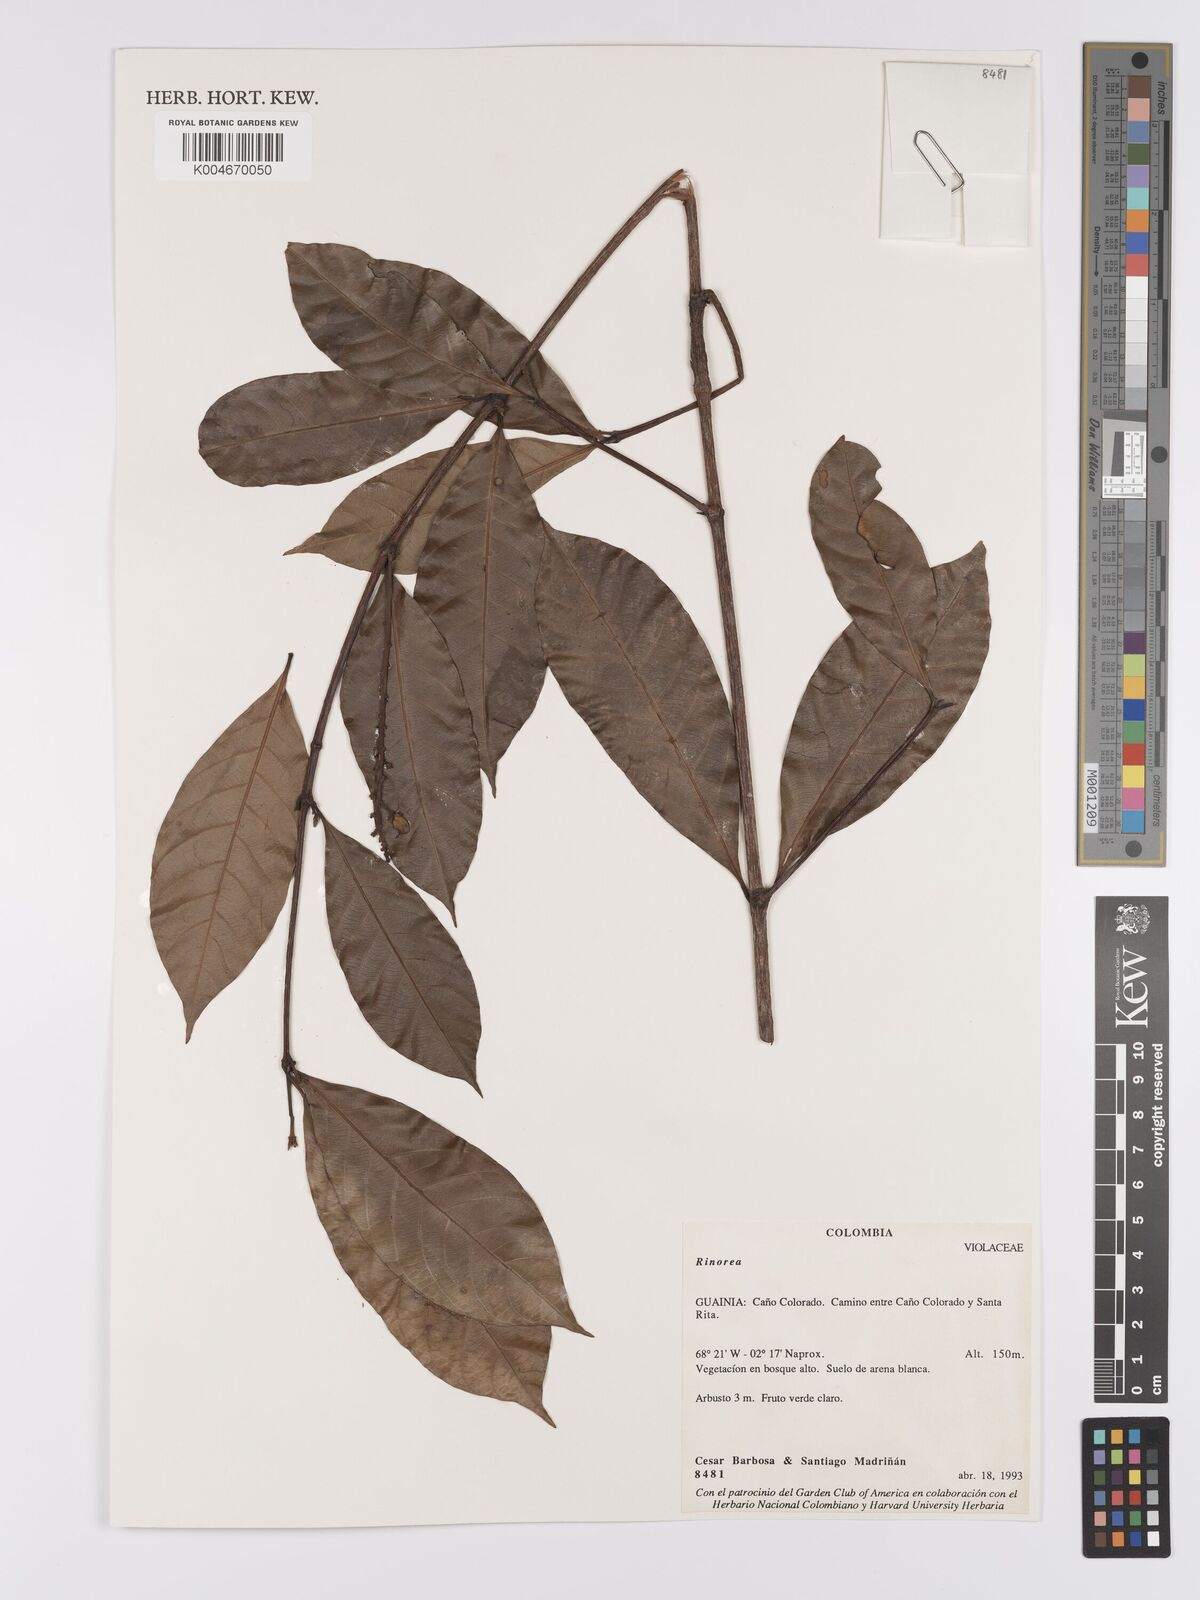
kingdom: Plantae
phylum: Tracheophyta
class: Magnoliopsida
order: Malpighiales
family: Violaceae
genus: Rinorea
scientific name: Rinorea
